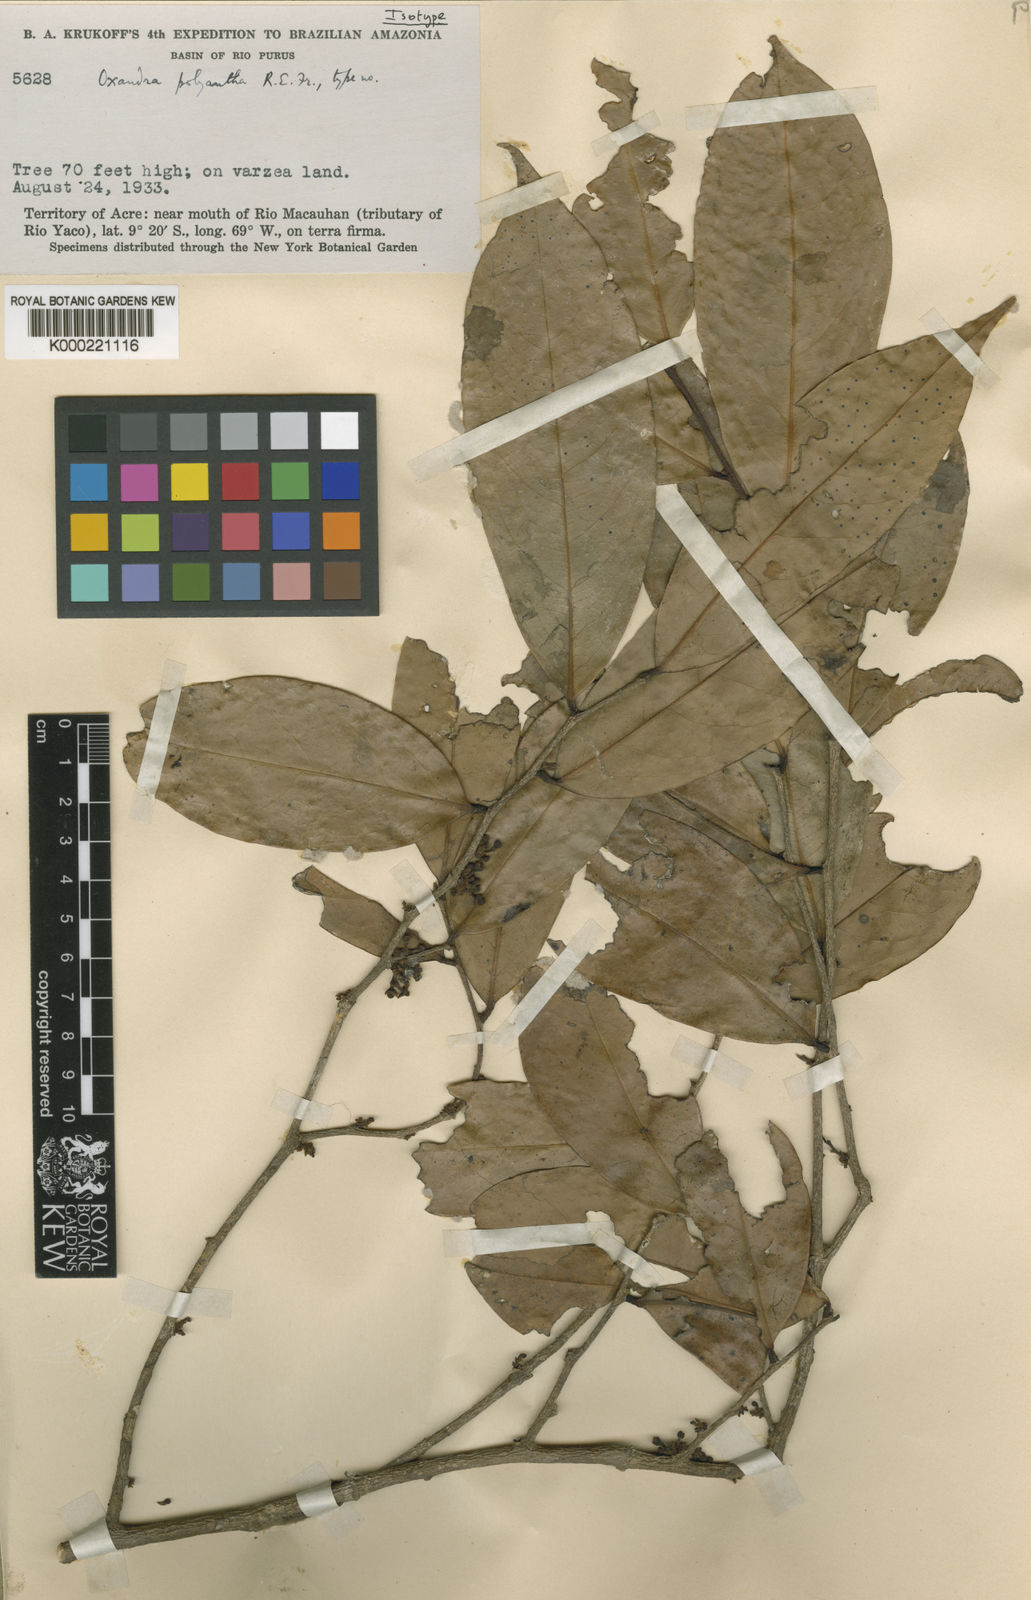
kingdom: Plantae
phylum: Tracheophyta
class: Magnoliopsida
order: Magnoliales
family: Annonaceae
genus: Oxandra
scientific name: Oxandra polyantha
